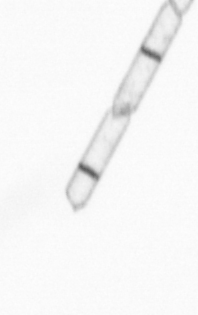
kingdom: Chromista
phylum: Ochrophyta
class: Bacillariophyceae
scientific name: Bacillariophyceae
